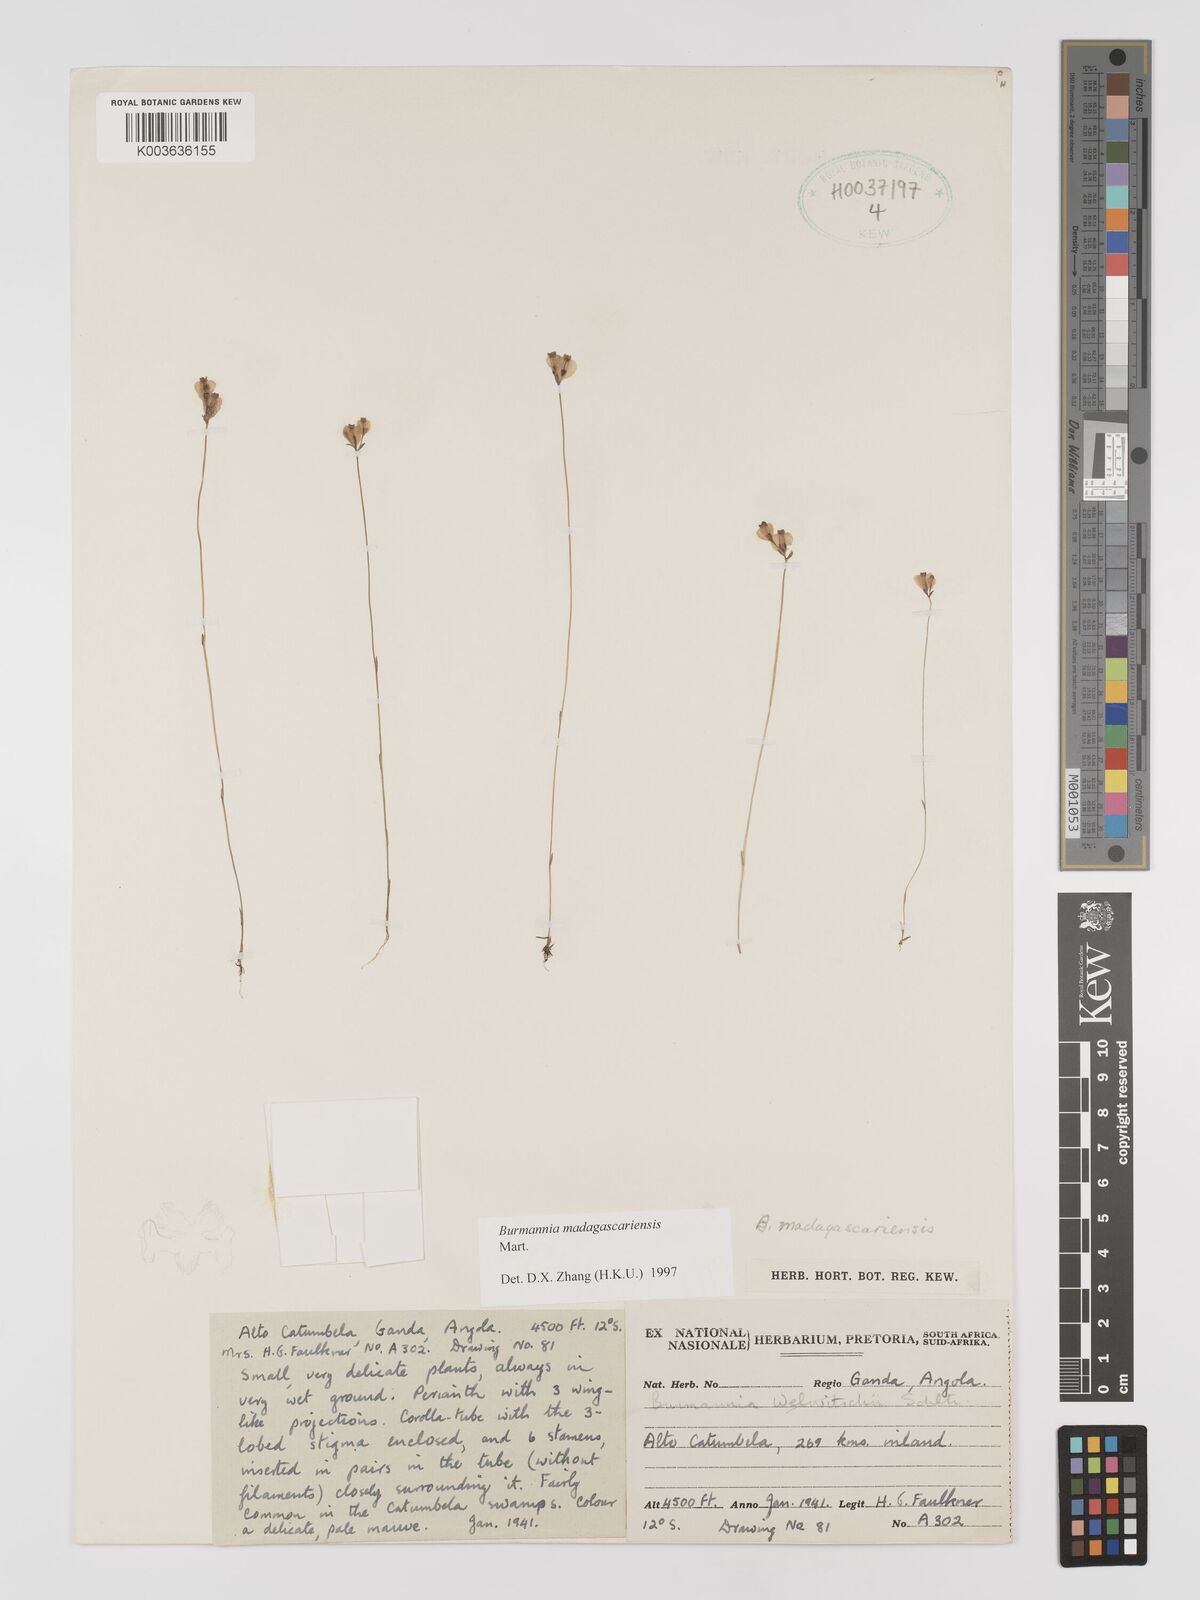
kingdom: Plantae
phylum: Tracheophyta
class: Liliopsida
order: Dioscoreales
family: Burmanniaceae
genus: Burmannia
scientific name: Burmannia madagascariensis
